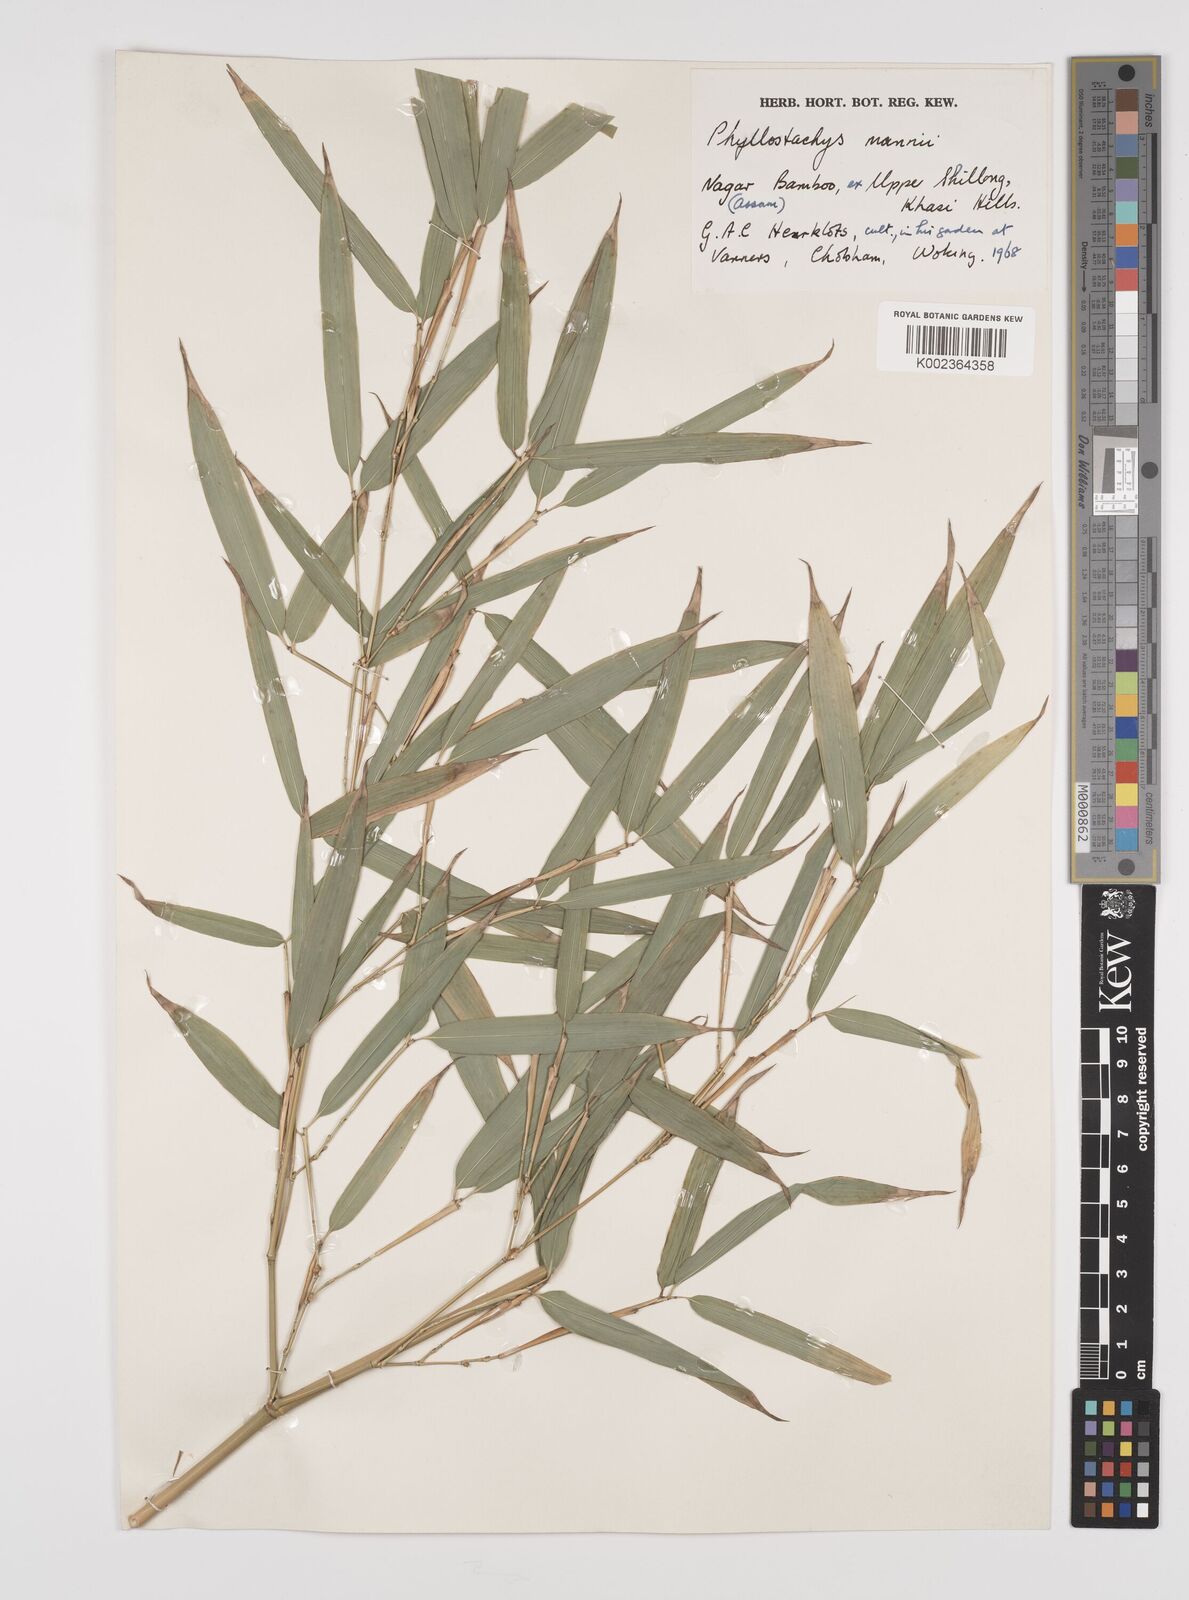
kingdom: Plantae
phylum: Tracheophyta
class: Liliopsida
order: Poales
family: Poaceae
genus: Phyllostachys
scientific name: Phyllostachys mannii
